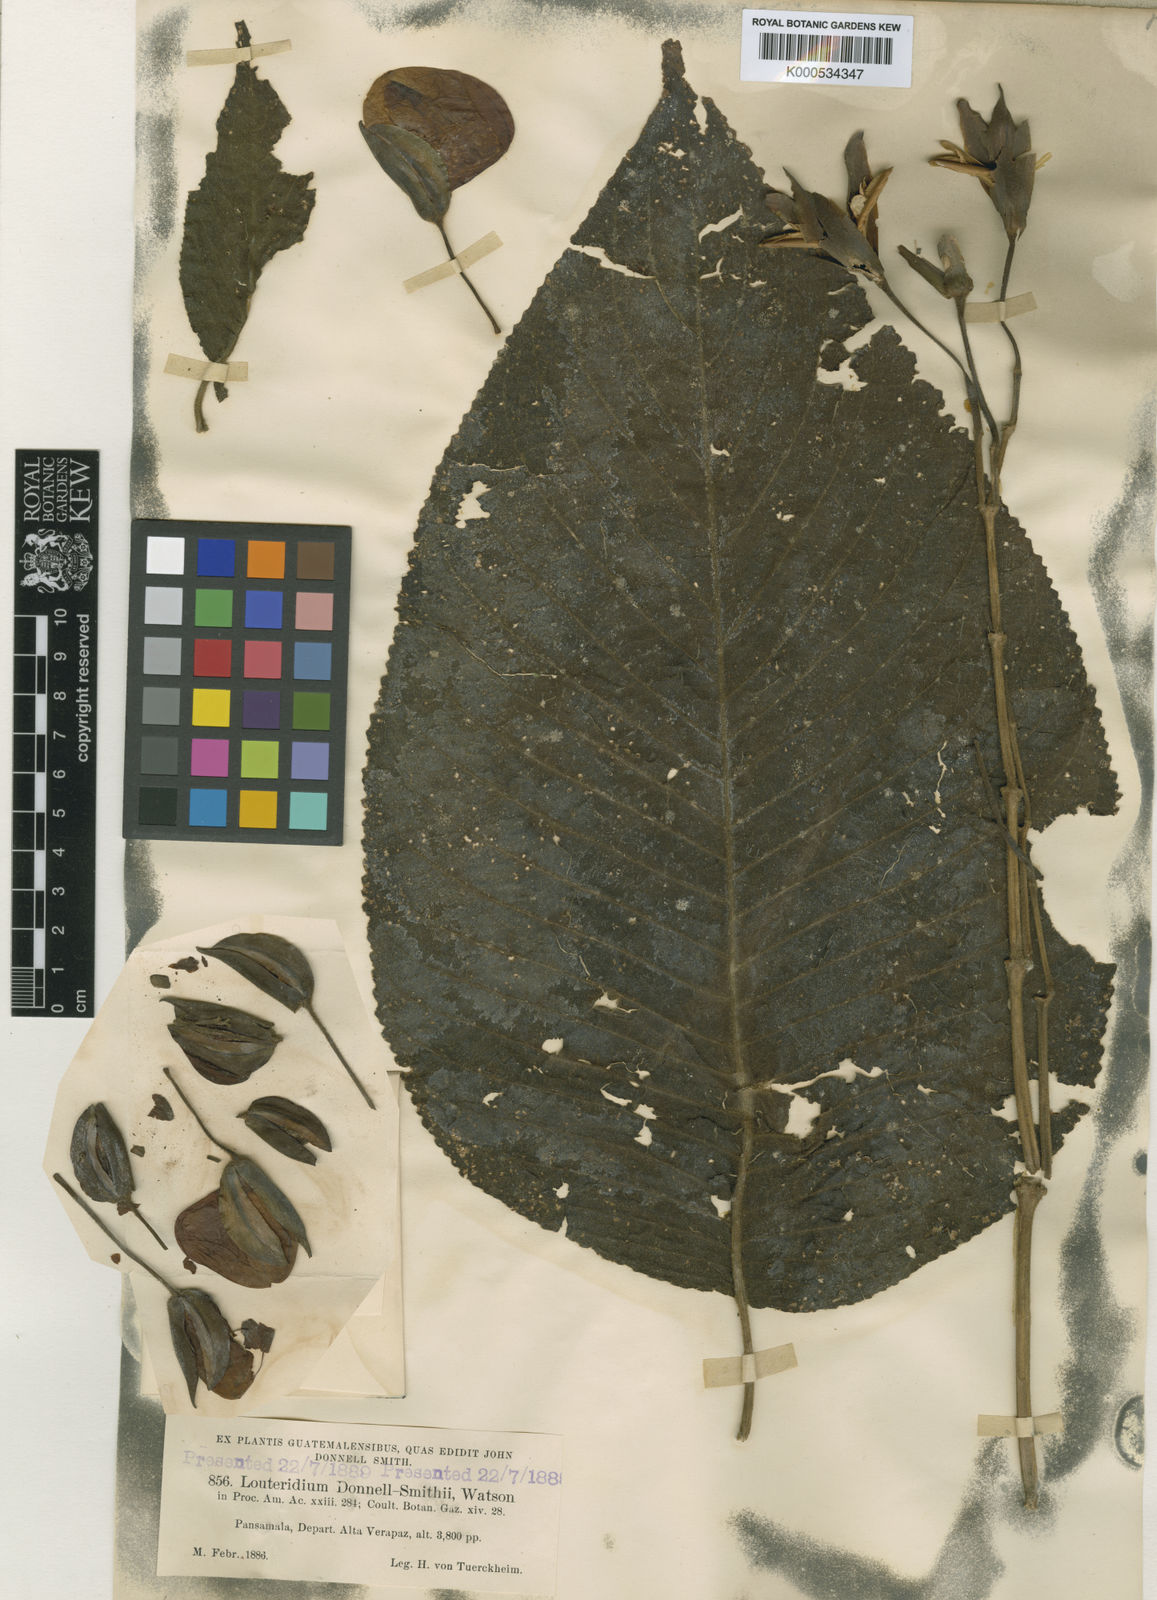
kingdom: Plantae
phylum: Tracheophyta
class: Magnoliopsida
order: Lamiales
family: Acanthaceae
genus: Louteridium
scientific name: Louteridium donnell-smithii
